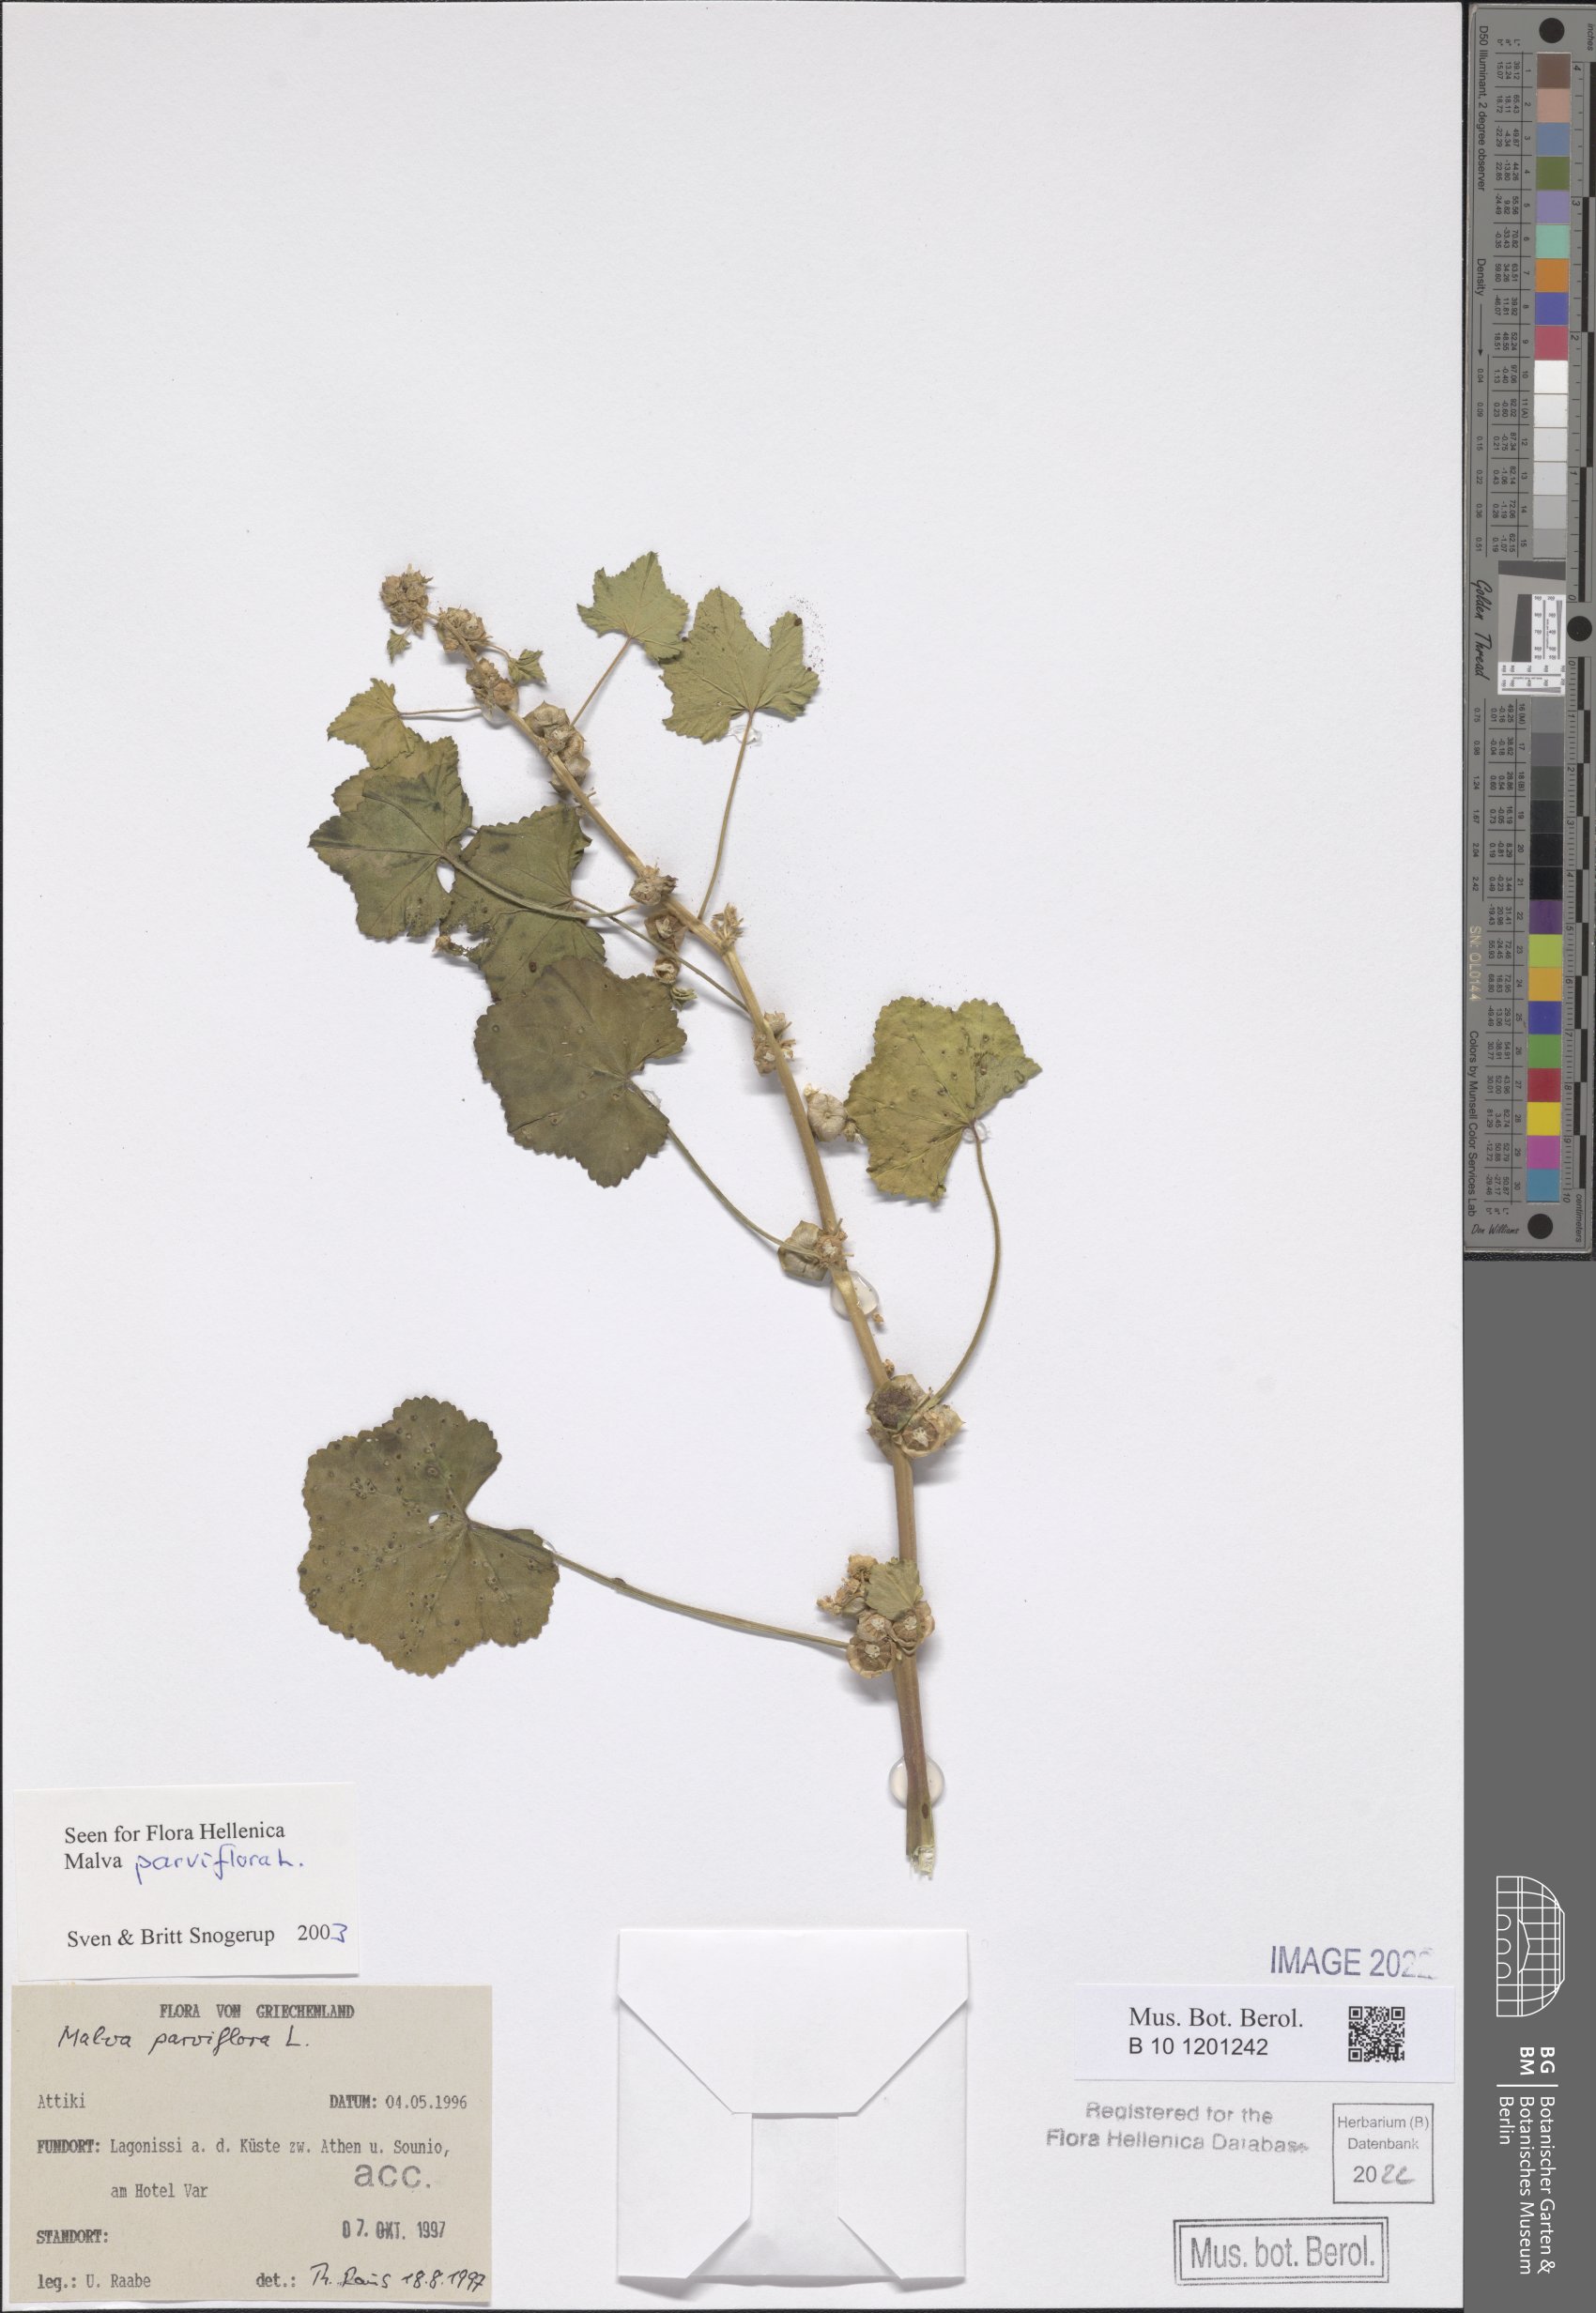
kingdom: Plantae
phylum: Tracheophyta
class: Magnoliopsida
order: Malvales
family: Malvaceae
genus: Malva
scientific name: Malva parviflora
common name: Least mallow
